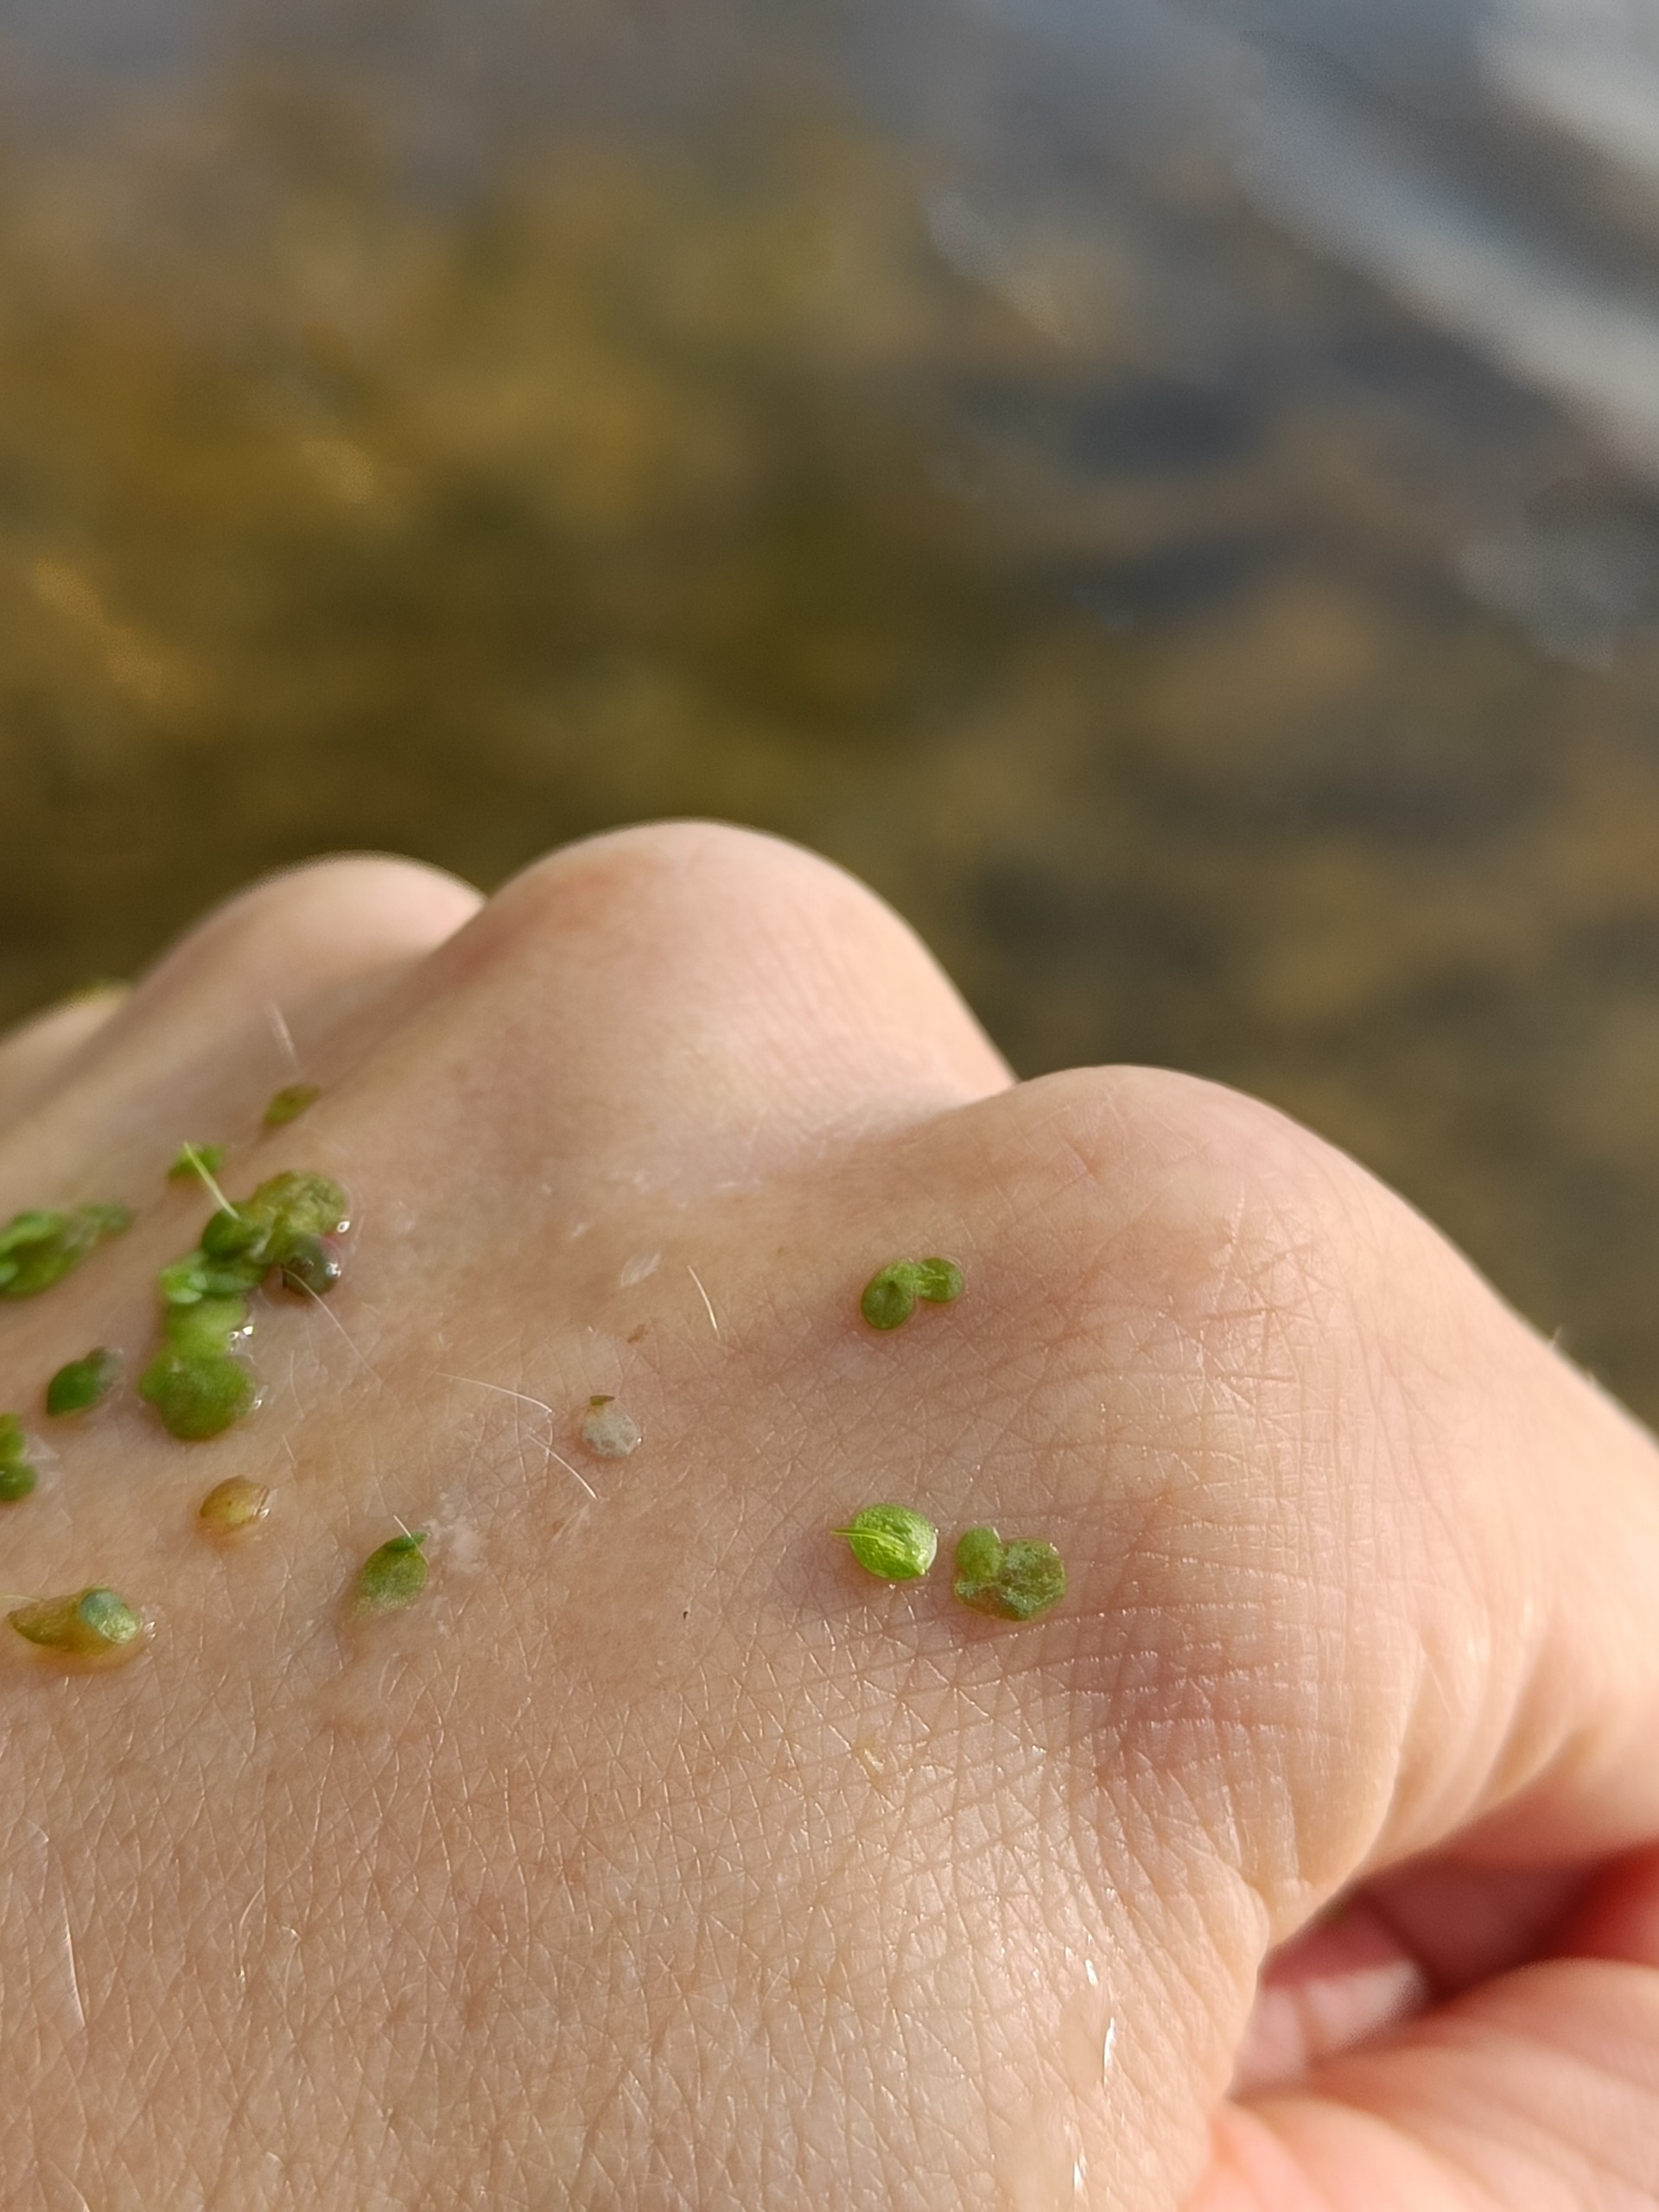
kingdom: Plantae
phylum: Tracheophyta
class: Liliopsida
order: Alismatales
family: Araceae
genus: Lemna
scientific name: Lemna minor
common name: Liden andemad
